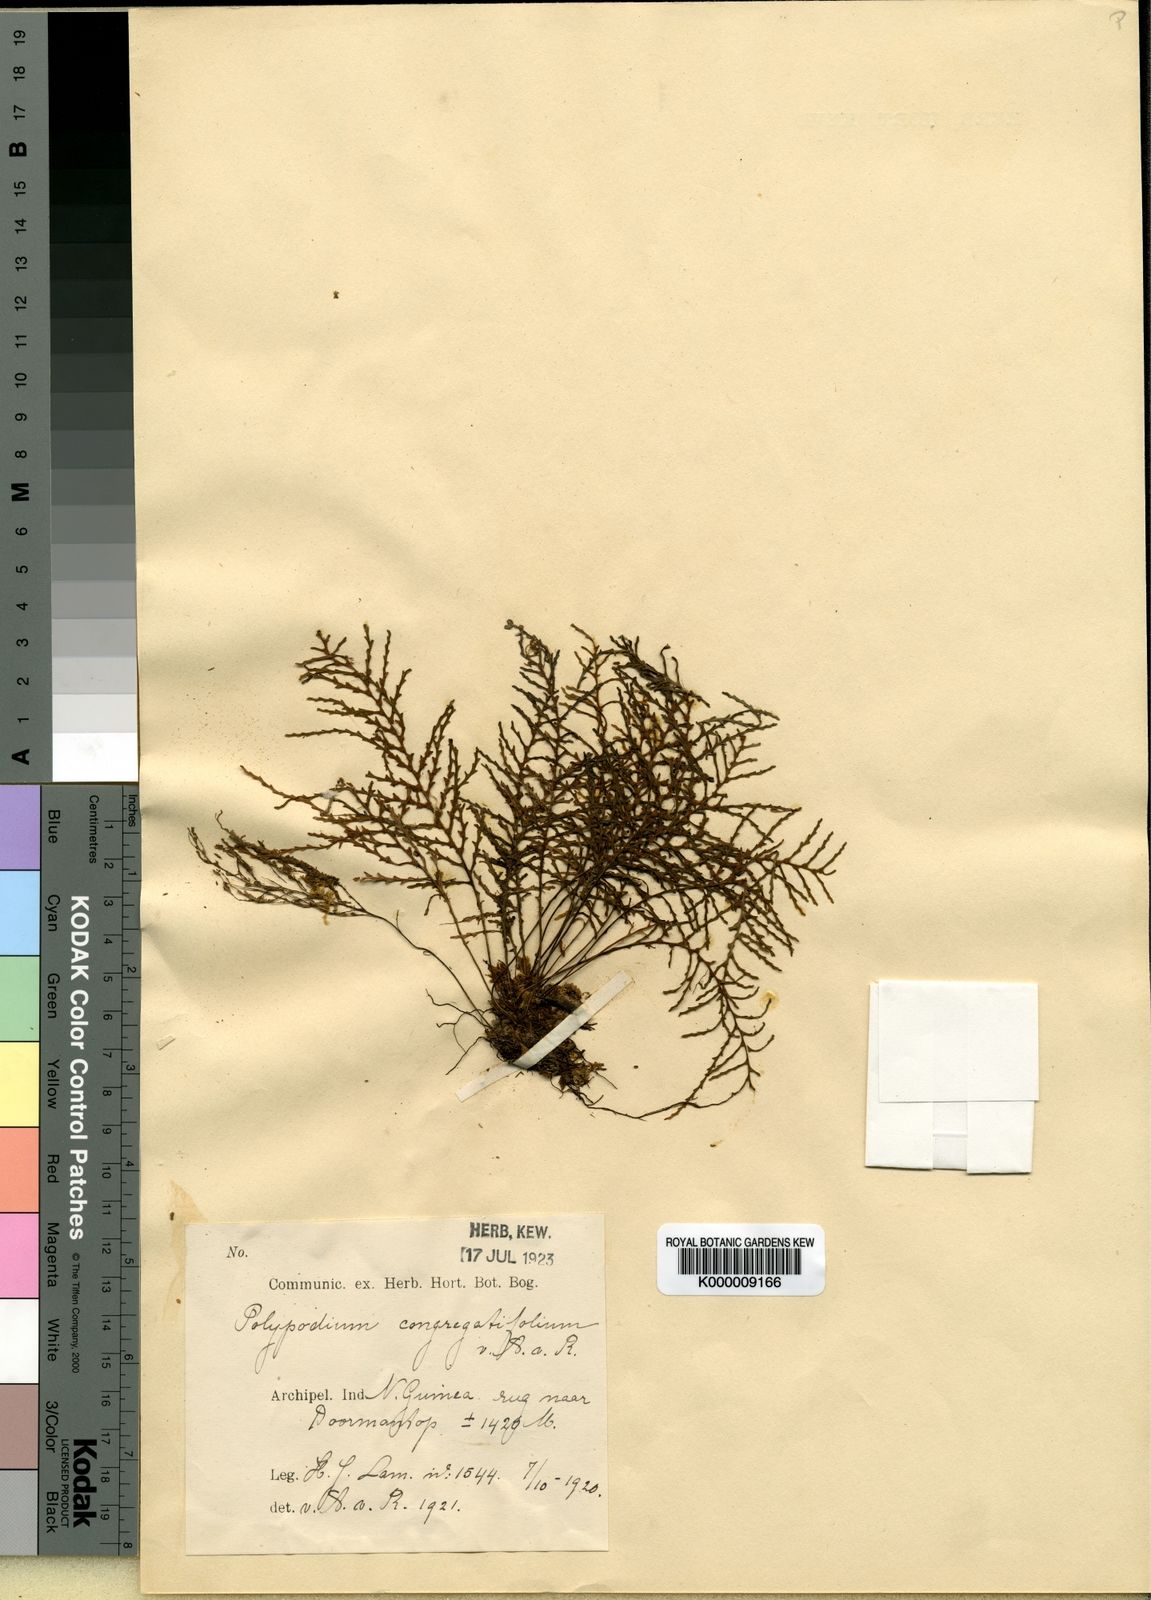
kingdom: Plantae
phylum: Tracheophyta
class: Polypodiopsida
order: Polypodiales
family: Polypodiaceae
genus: Tomophyllum
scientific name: Tomophyllum congregatifolium
